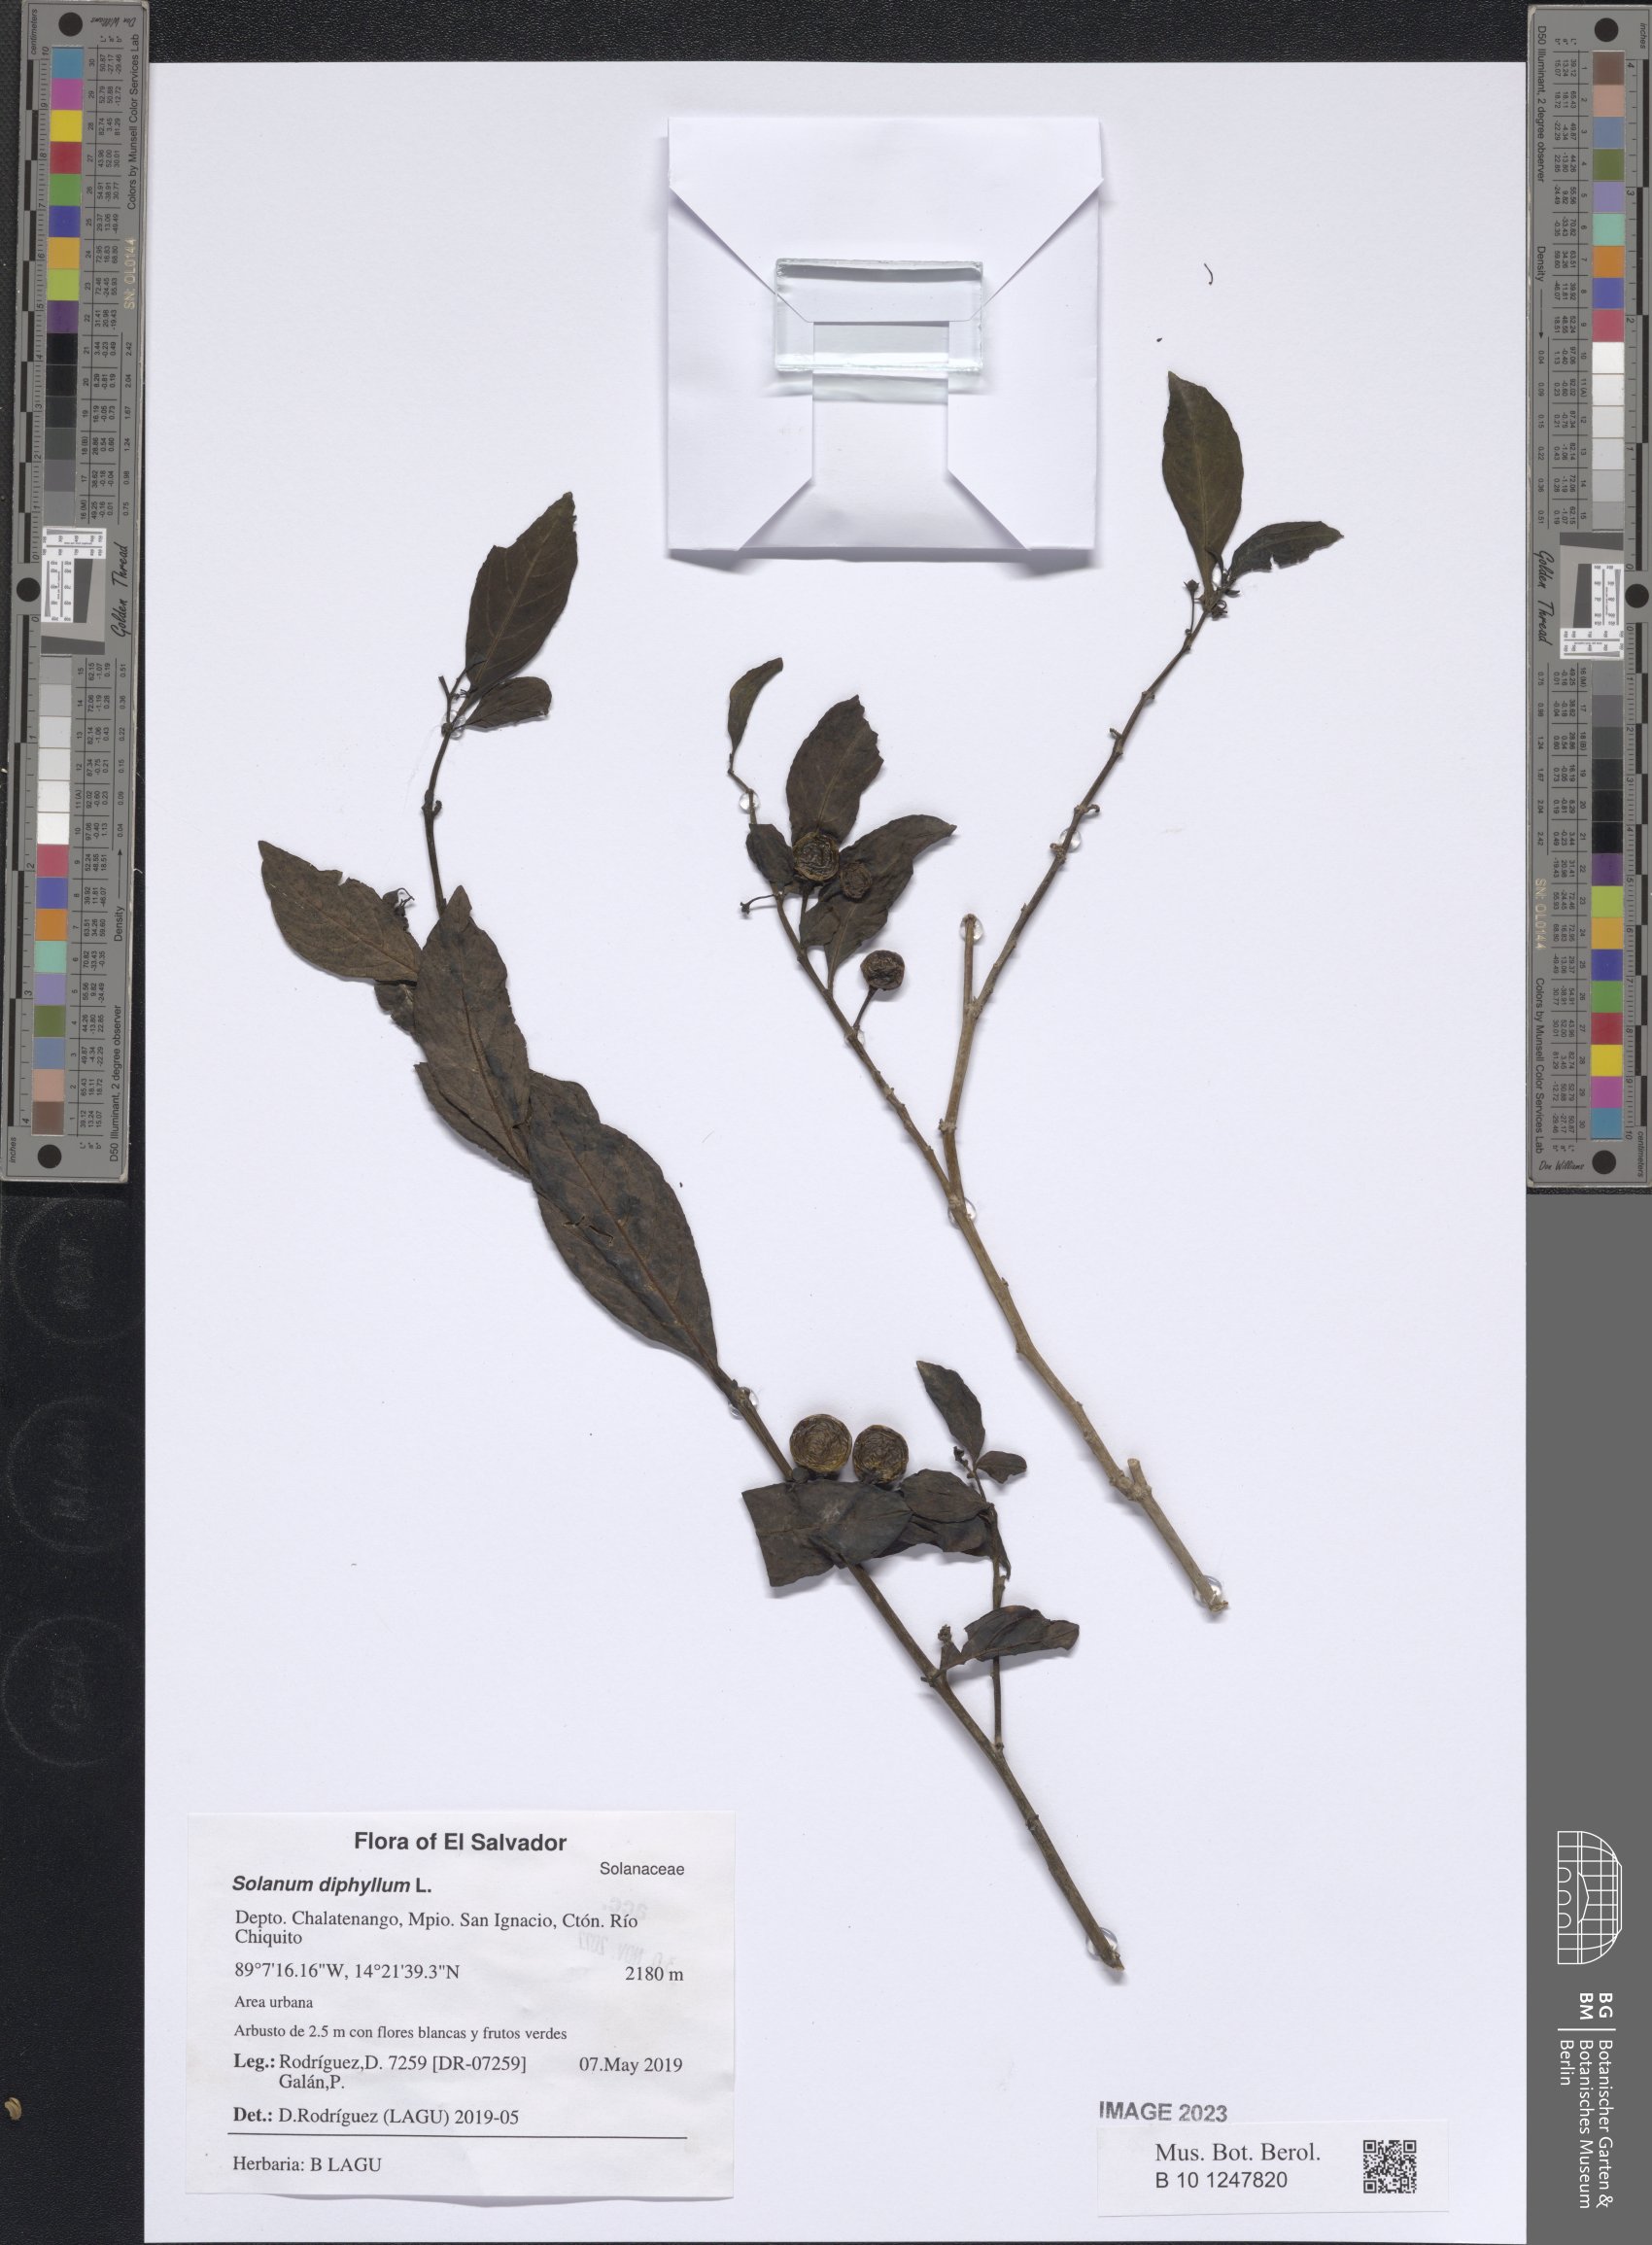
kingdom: Plantae
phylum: Tracheophyta
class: Magnoliopsida
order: Solanales
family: Solanaceae
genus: Solanum
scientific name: Solanum diphyllum
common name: Twoleaf nightshade
